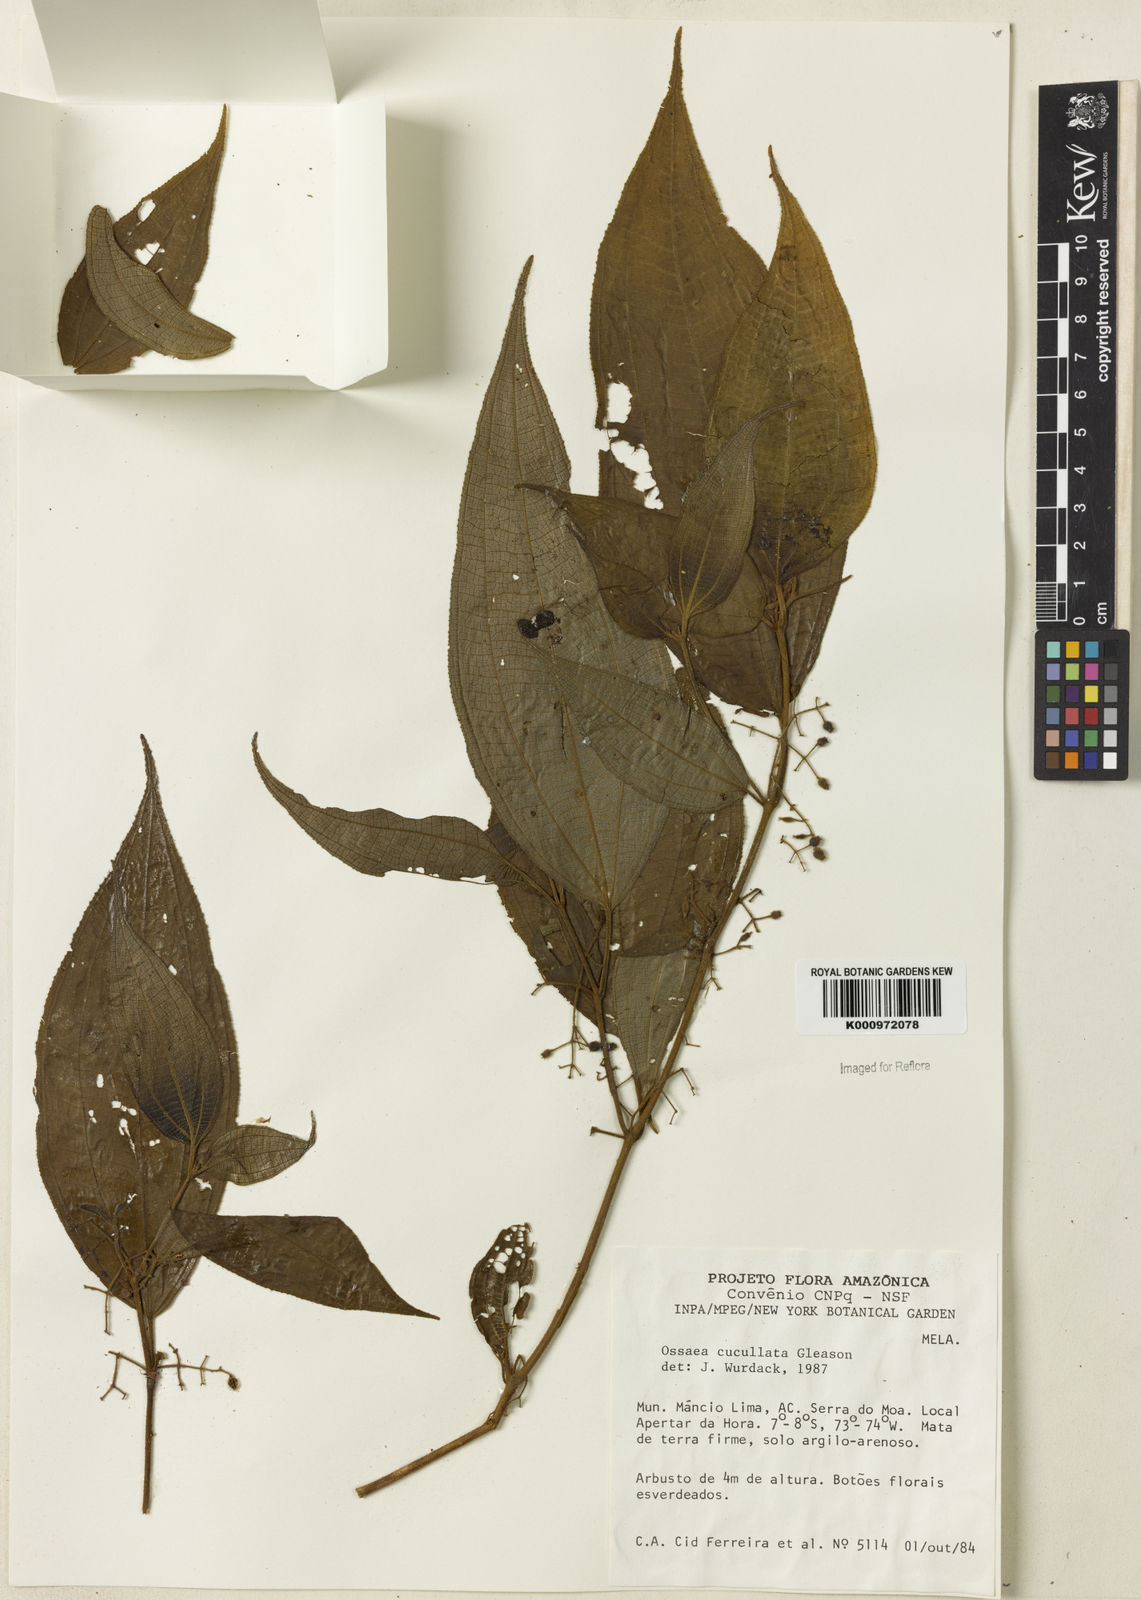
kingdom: Plantae
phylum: Tracheophyta
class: Magnoliopsida
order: Myrtales
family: Melastomataceae
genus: Miconia
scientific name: Miconia cucullata
